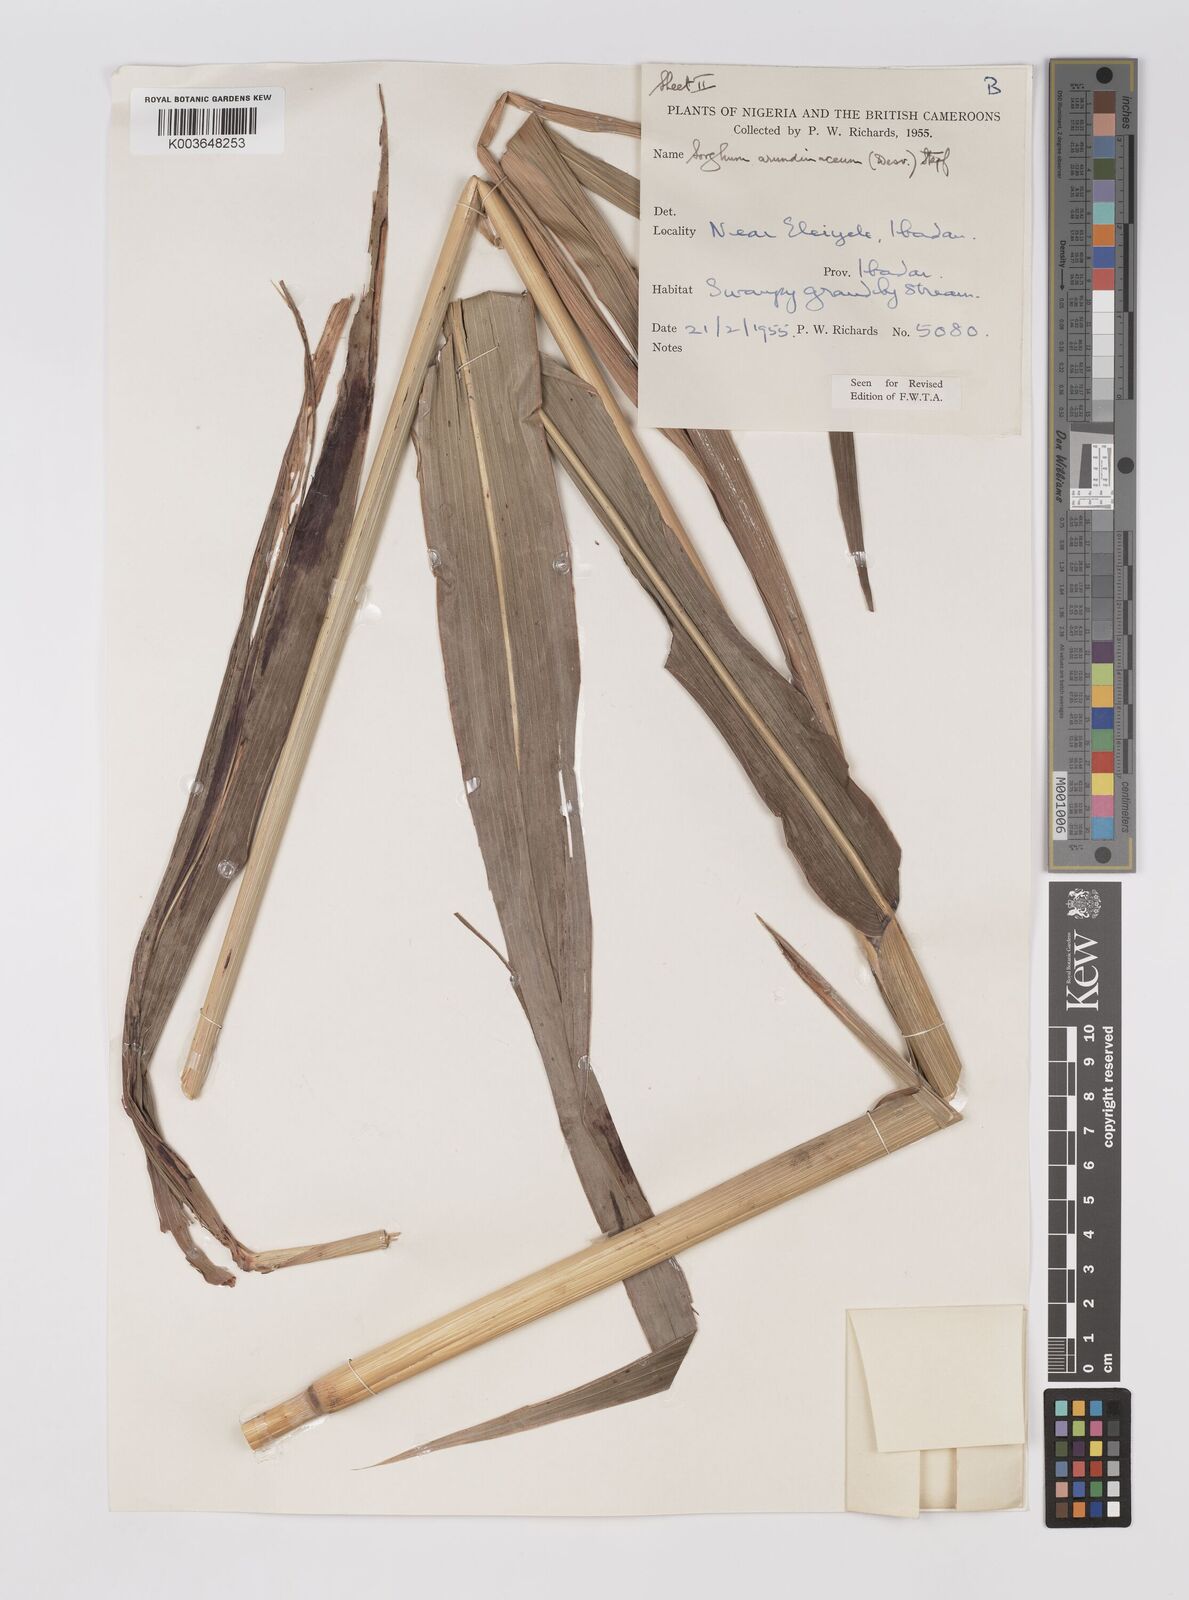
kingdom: Plantae
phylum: Tracheophyta
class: Liliopsida
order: Poales
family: Poaceae
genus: Sorghum
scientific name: Sorghum arundinaceum
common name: Sorghum
